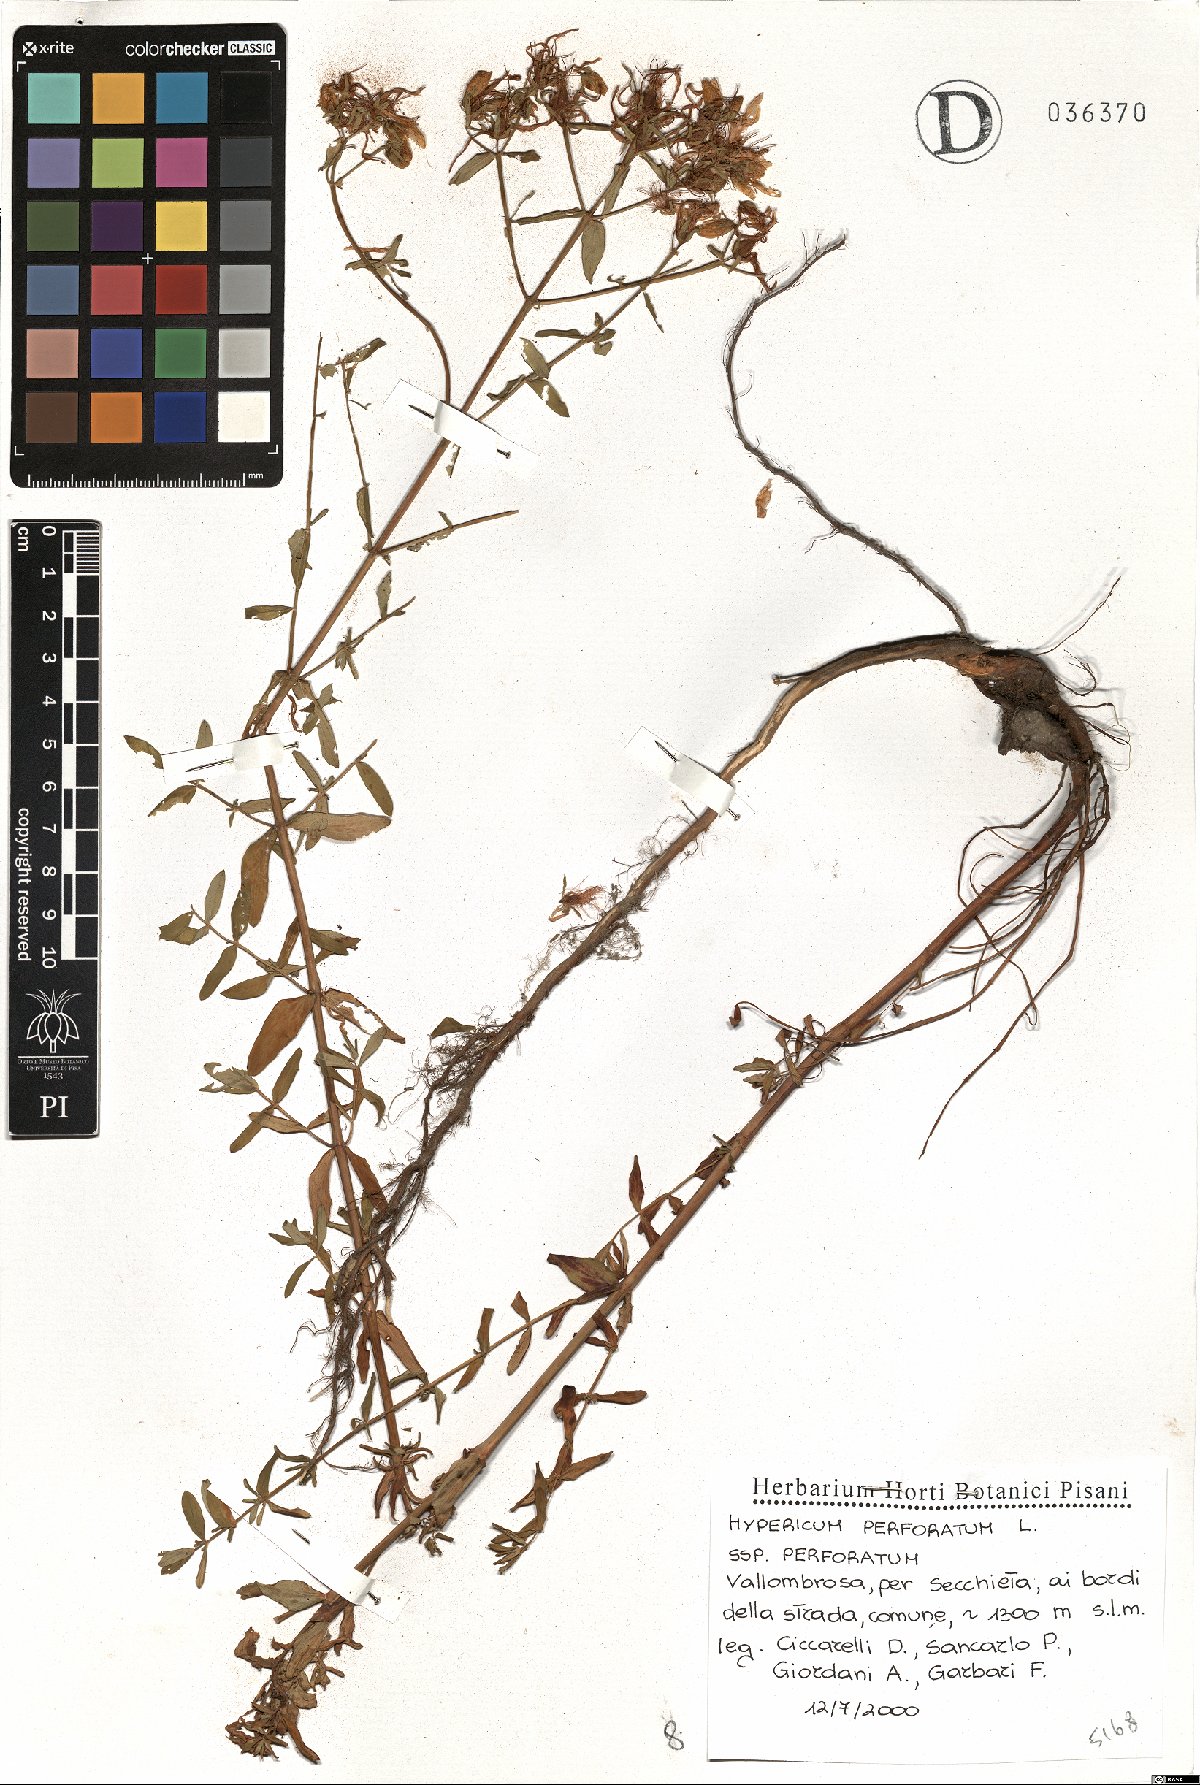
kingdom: Plantae
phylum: Tracheophyta
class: Magnoliopsida
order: Malpighiales
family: Hypericaceae
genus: Hypericum
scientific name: Hypericum perforatum
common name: Common st. johnswort
